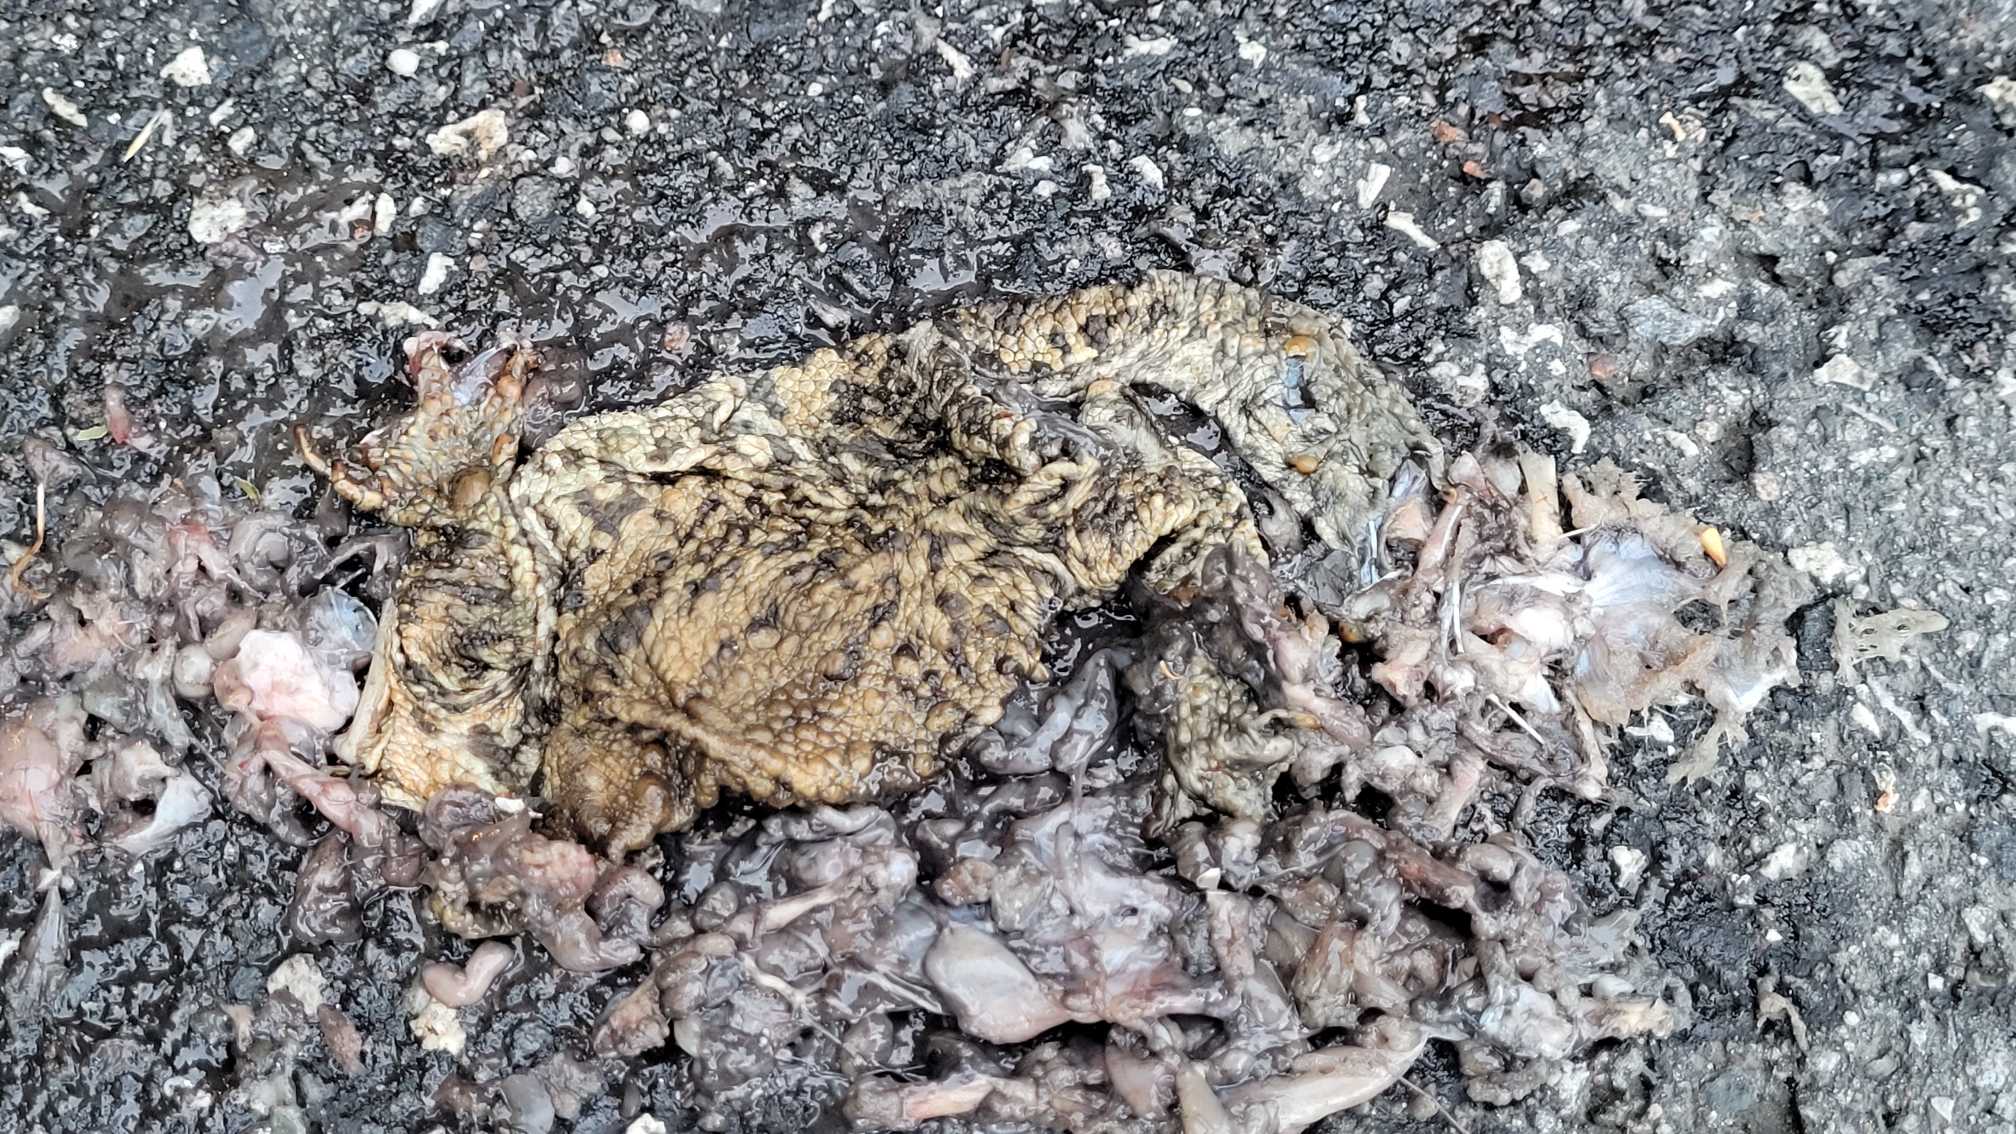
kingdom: Animalia
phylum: Chordata
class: Amphibia
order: Anura
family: Bufonidae
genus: Bufo
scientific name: Bufo bufo
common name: Skrubtudse
